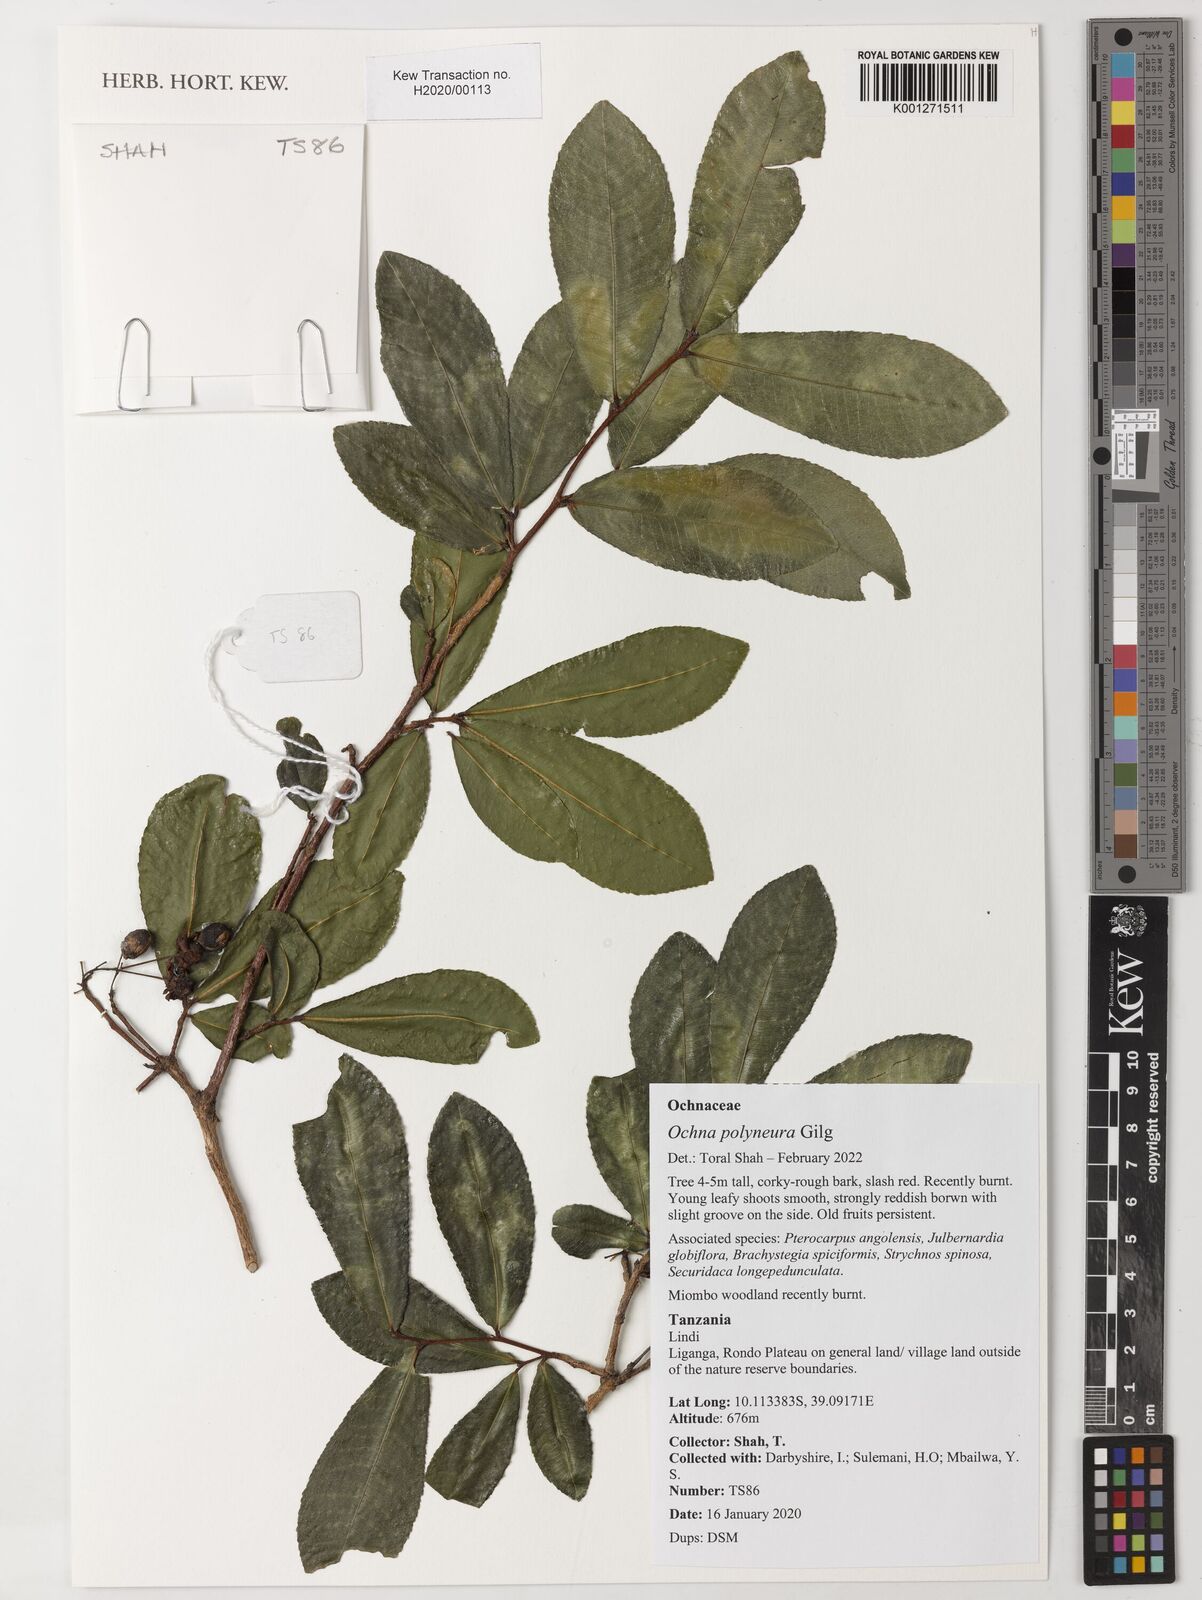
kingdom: Plantae
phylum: Tracheophyta
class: Magnoliopsida
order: Malpighiales
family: Ochnaceae
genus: Ochna
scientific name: Ochna polyneura
